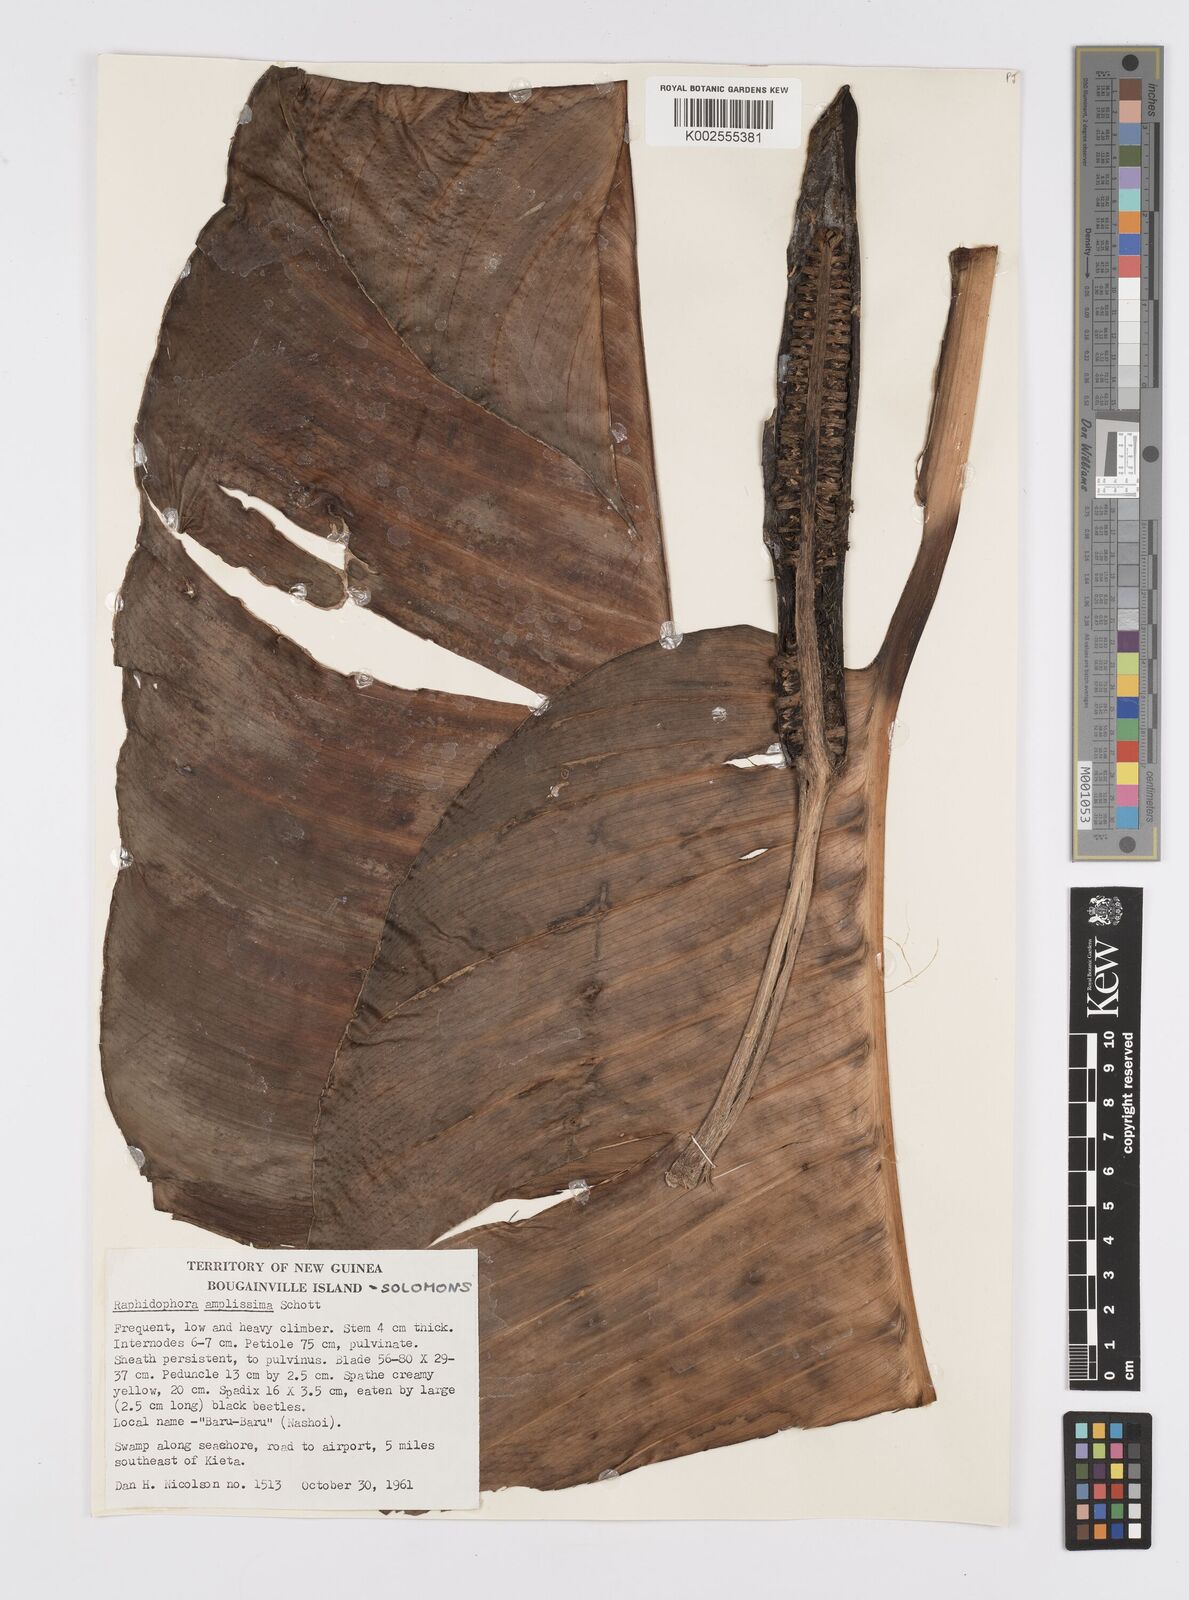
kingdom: Plantae
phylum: Tracheophyta
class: Liliopsida
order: Alismatales
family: Araceae
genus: Epipremnum
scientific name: Epipremnum amplissimum
